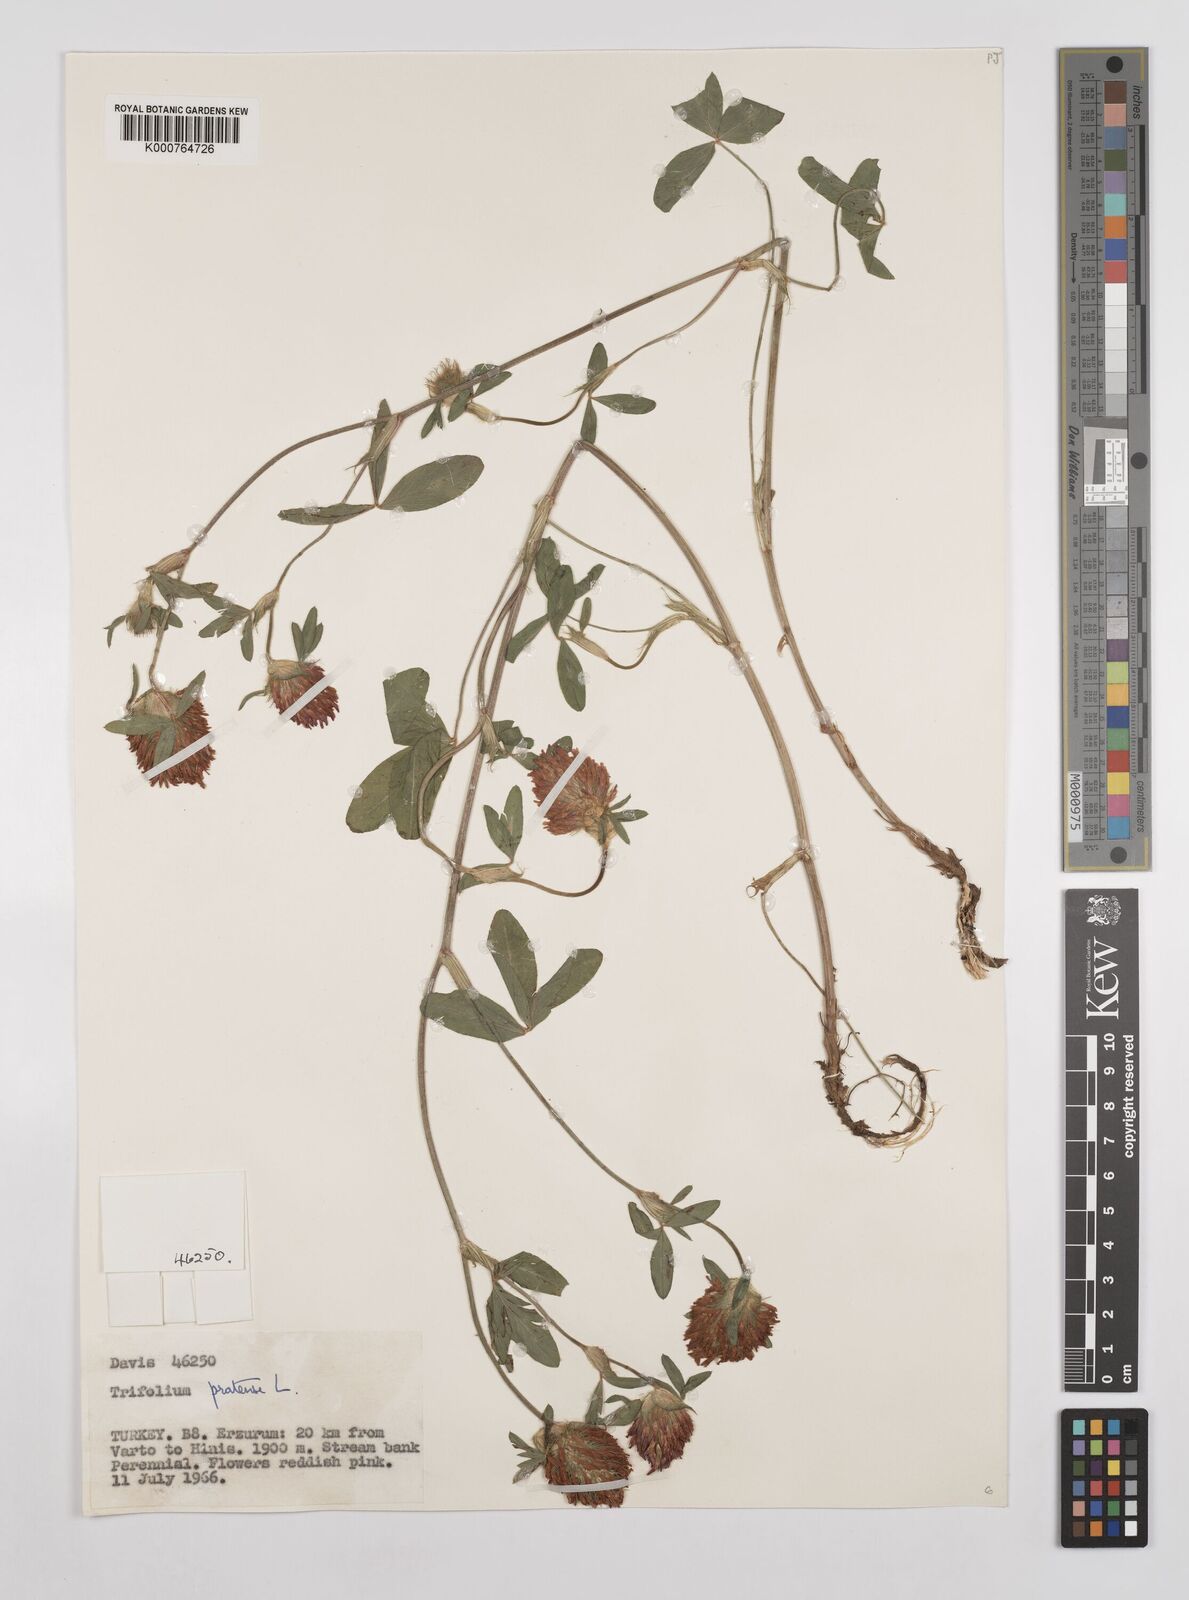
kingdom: Plantae
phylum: Tracheophyta
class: Magnoliopsida
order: Fabales
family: Fabaceae
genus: Trifolium
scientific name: Trifolium pratense
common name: Red clover
